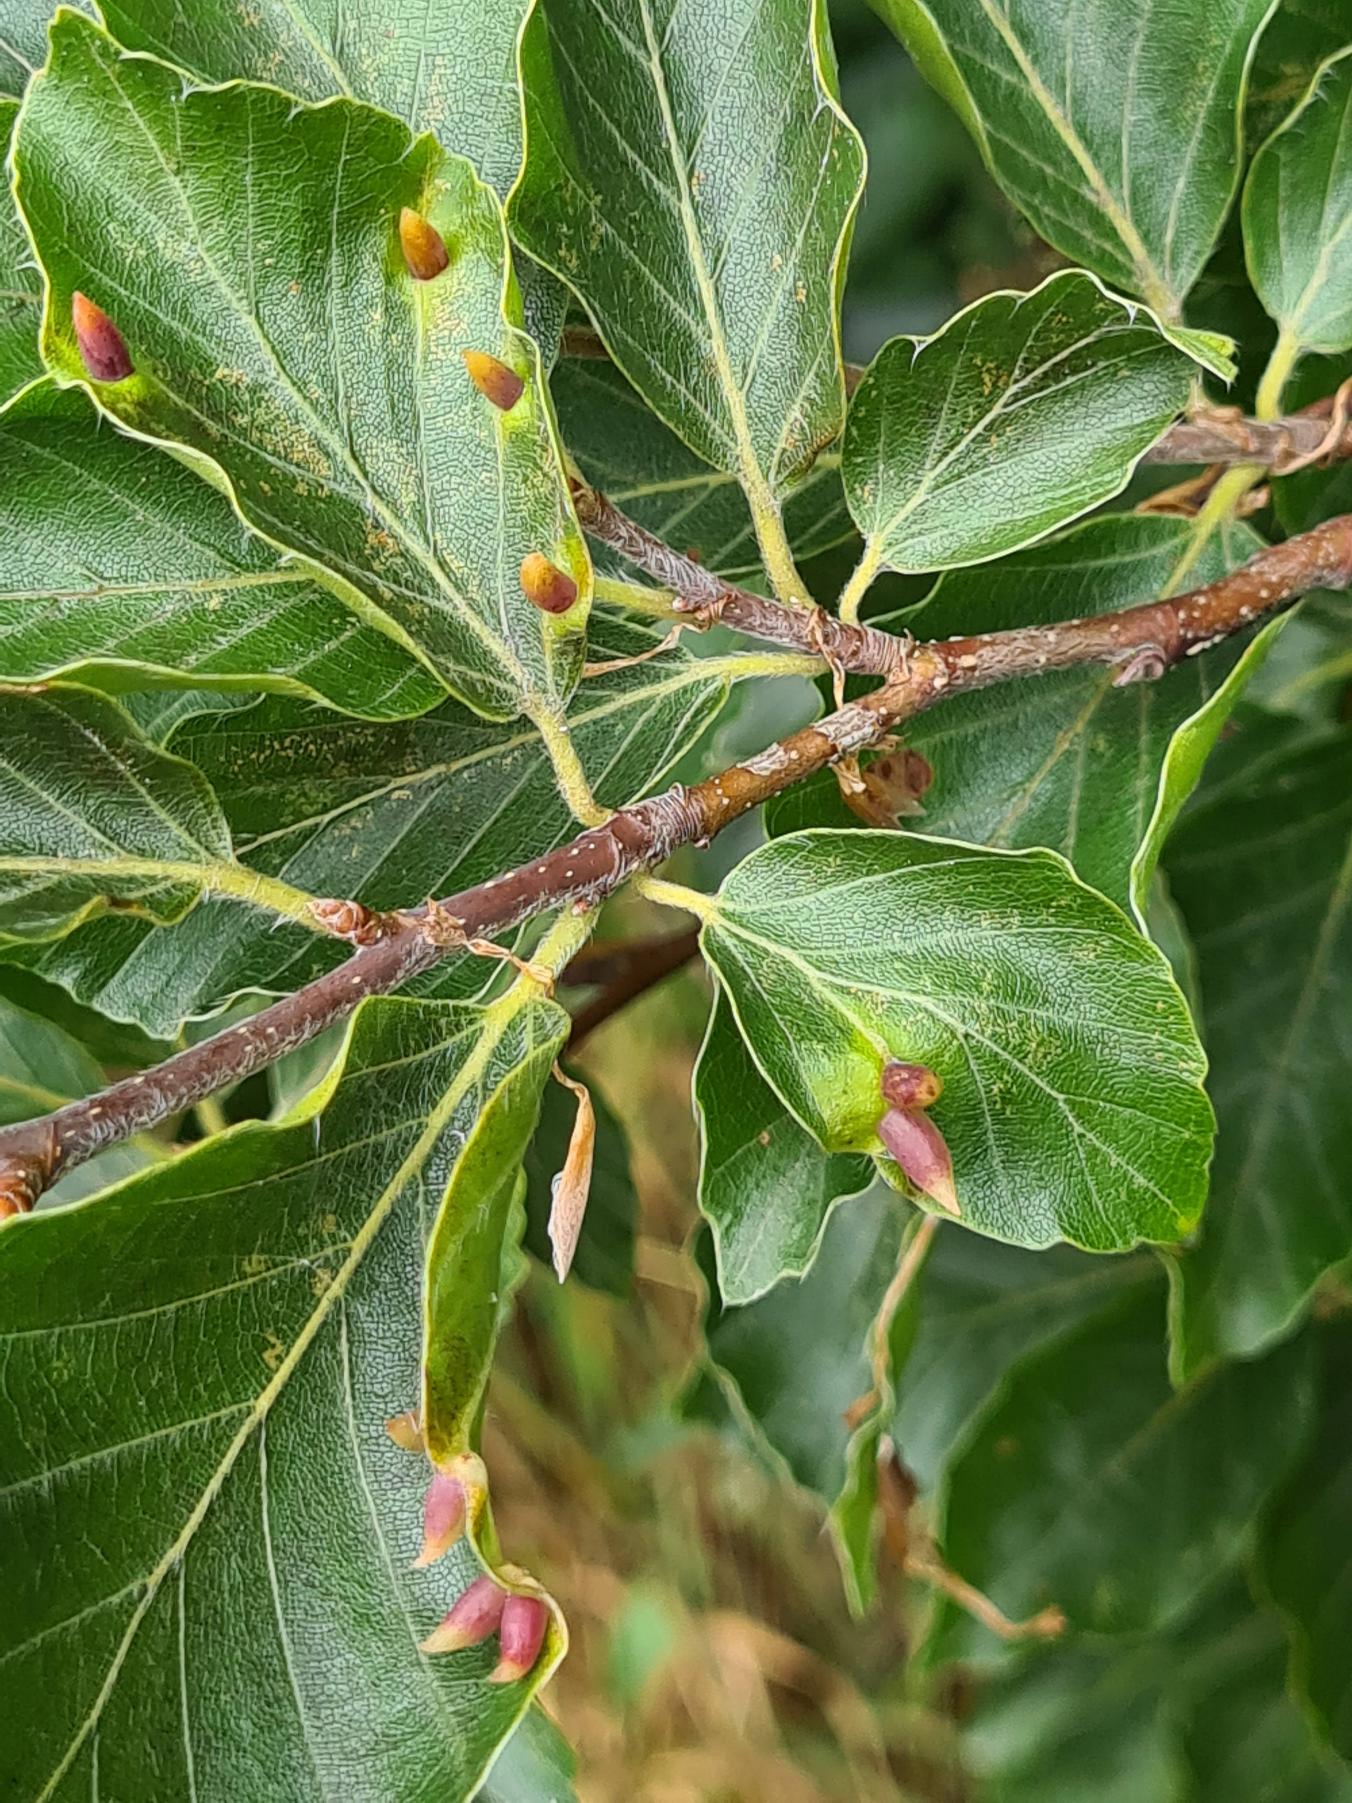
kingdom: Animalia
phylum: Arthropoda
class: Insecta
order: Diptera
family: Cecidomyiidae
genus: Mikiola
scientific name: Mikiola fagi
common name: Bøgegalmyg
